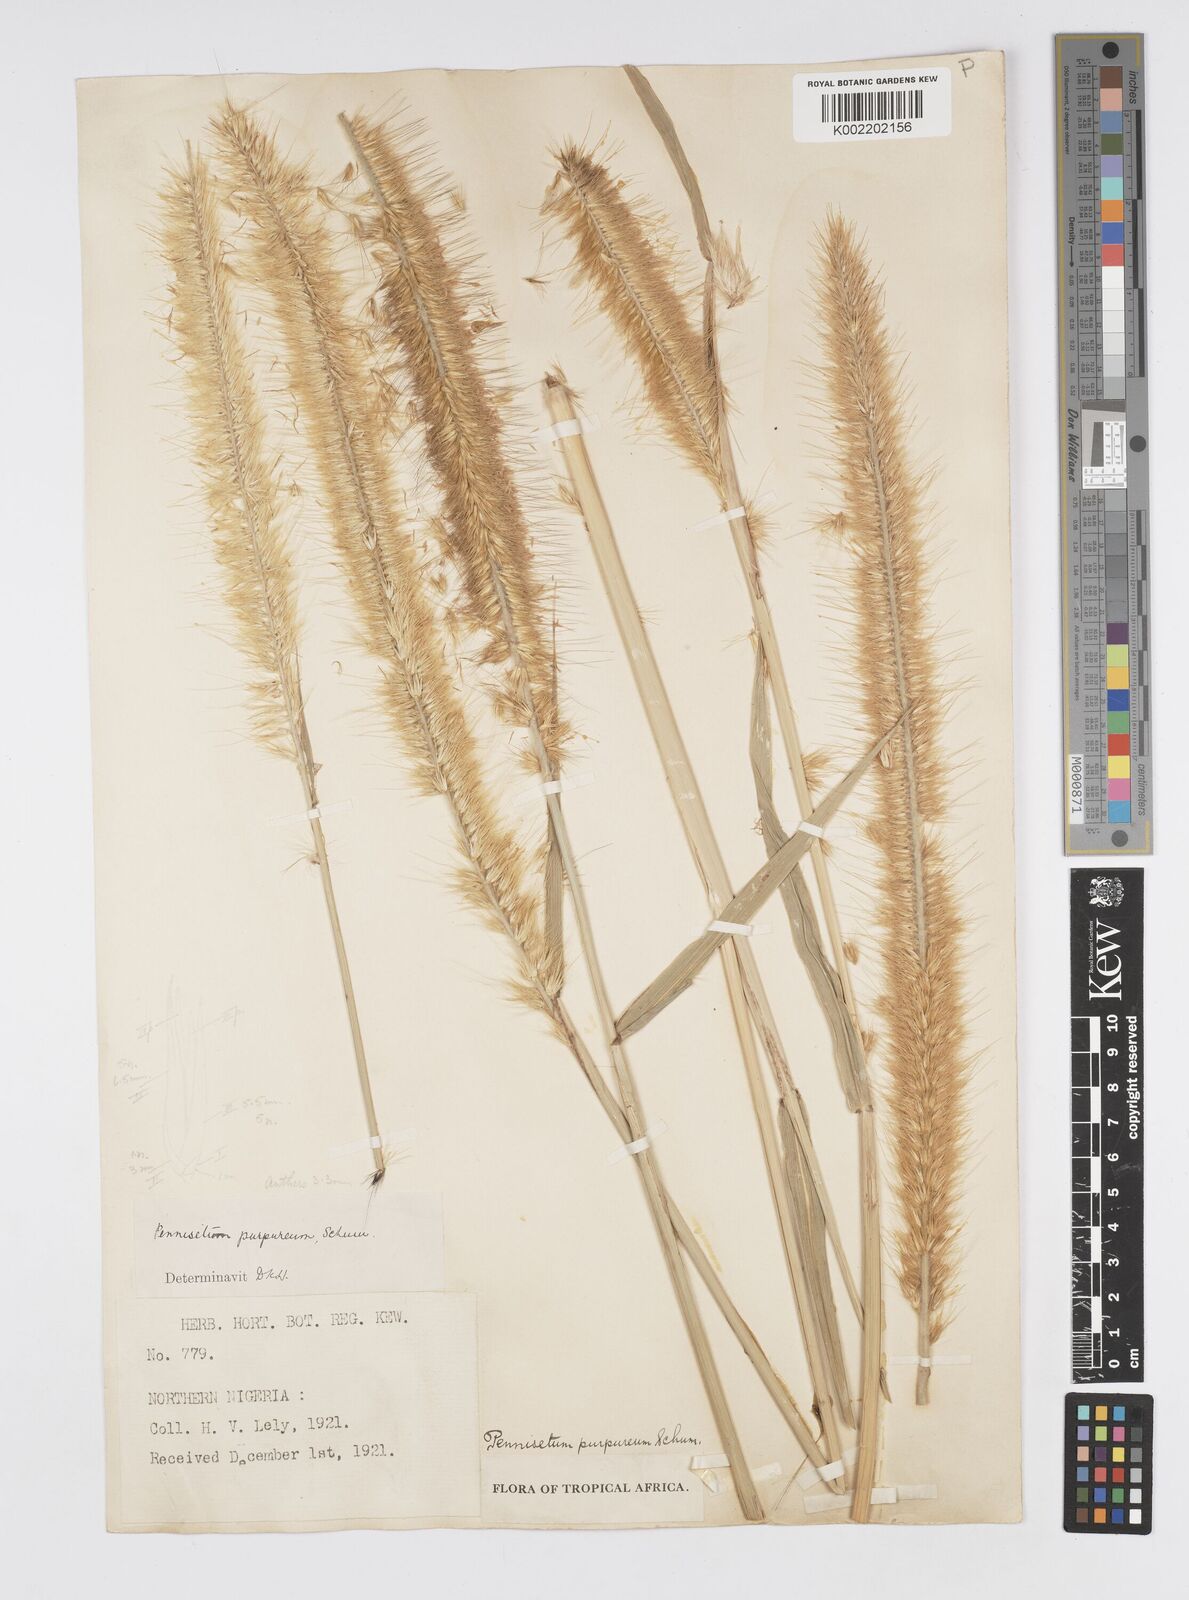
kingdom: Plantae
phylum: Tracheophyta
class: Liliopsida
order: Poales
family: Poaceae
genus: Cenchrus
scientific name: Cenchrus purpureus
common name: Elephant grass
